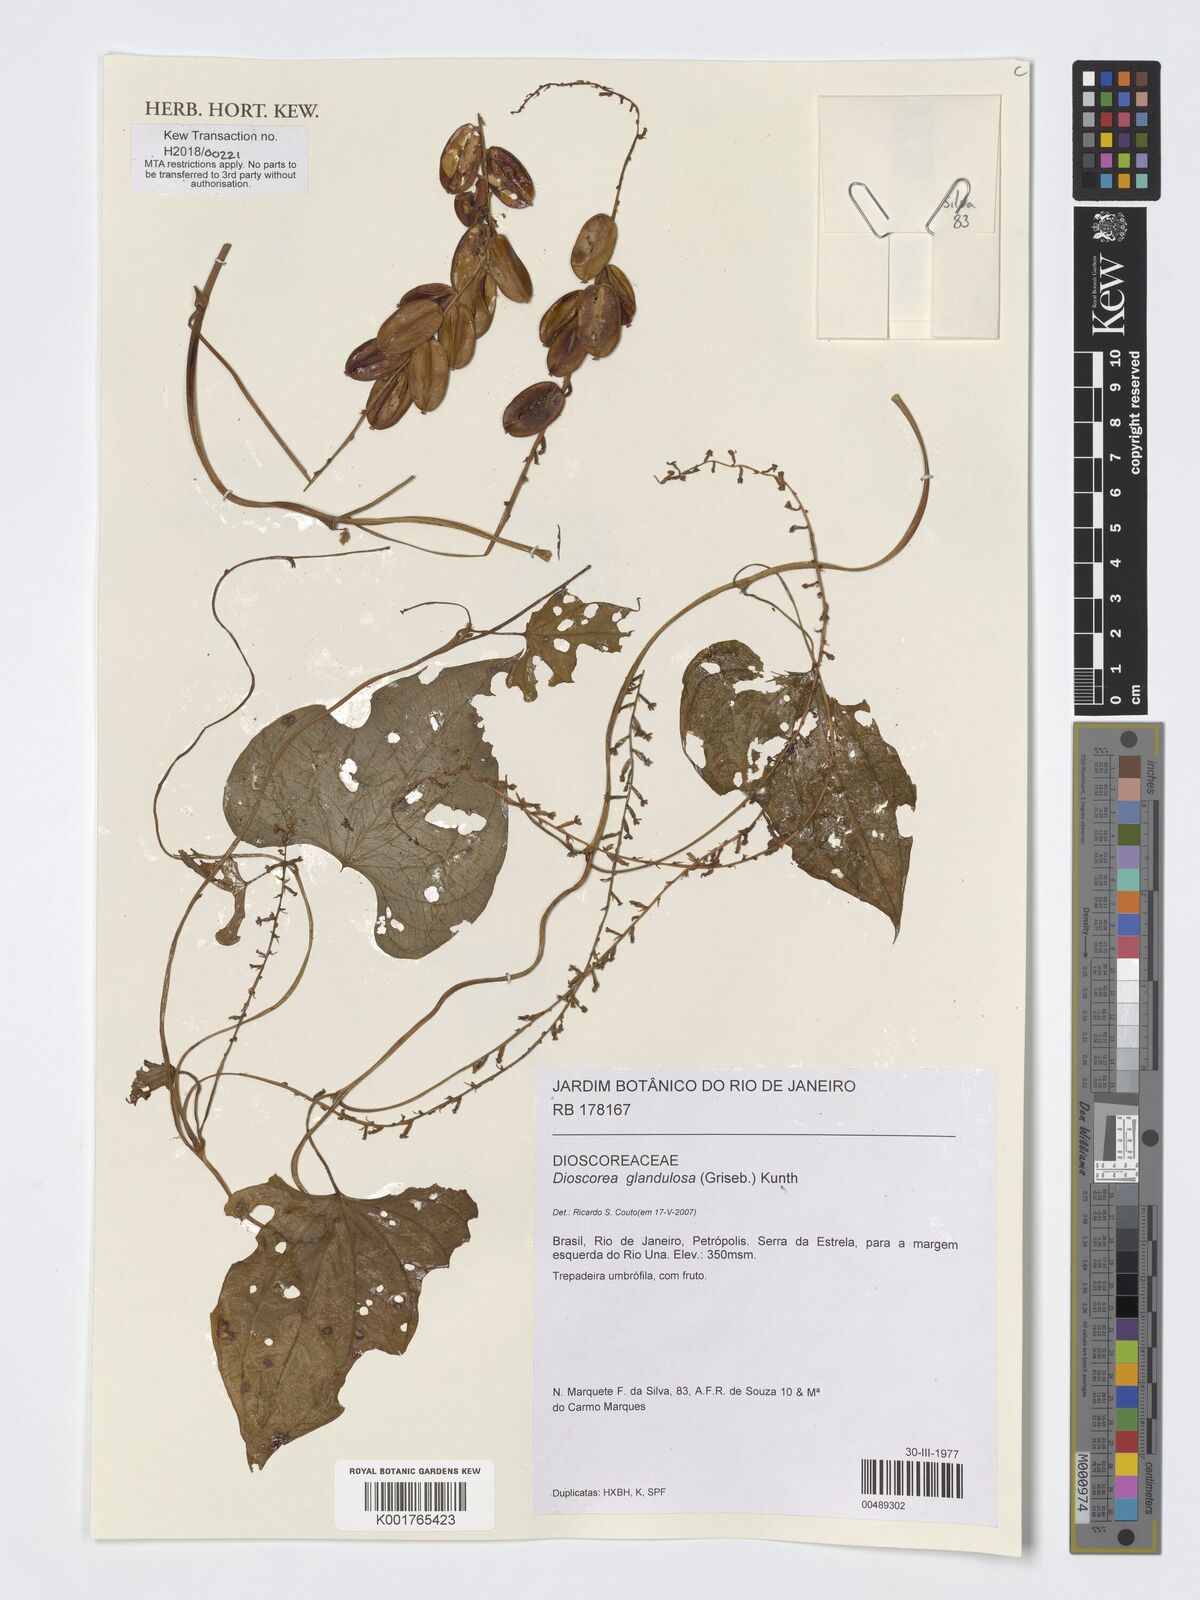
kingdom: Plantae
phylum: Tracheophyta
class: Liliopsida
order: Dioscoreales
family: Dioscoreaceae
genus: Dioscorea
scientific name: Dioscorea glandulosa
